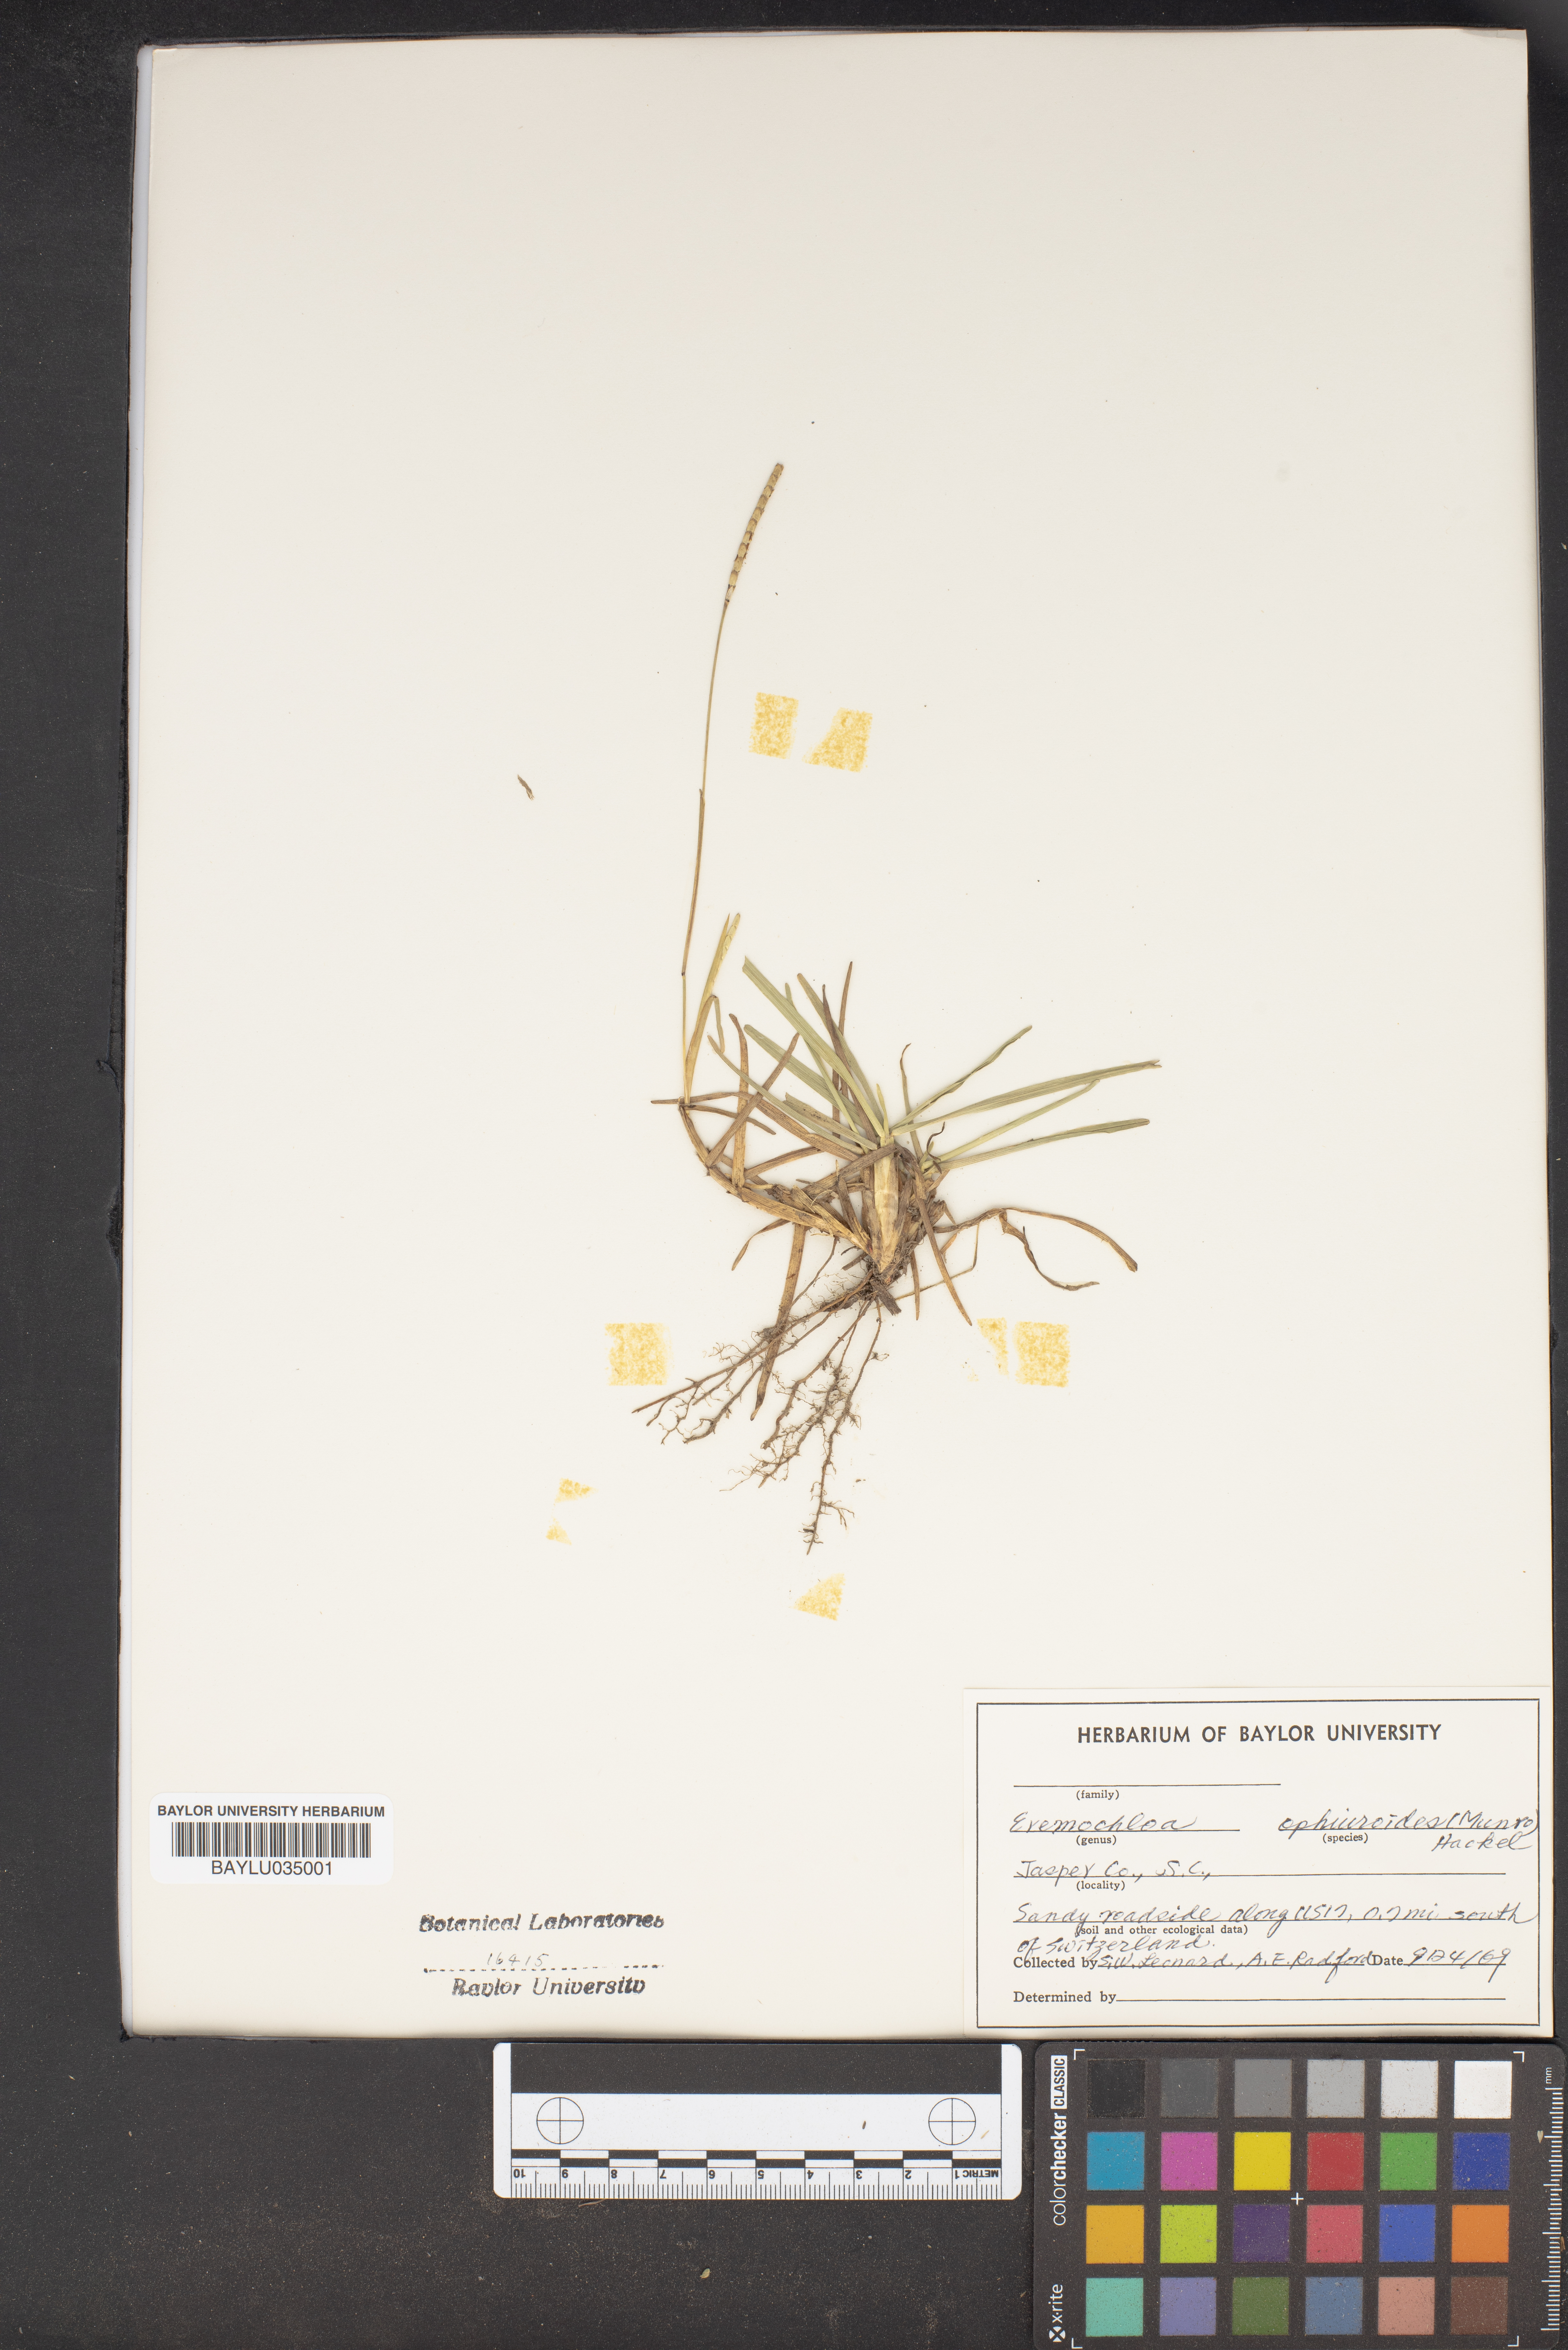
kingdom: Plantae
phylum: Tracheophyta
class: Liliopsida
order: Poales
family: Poaceae
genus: Eremochloa
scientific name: Eremochloa ophiuroides
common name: Centipede grass
